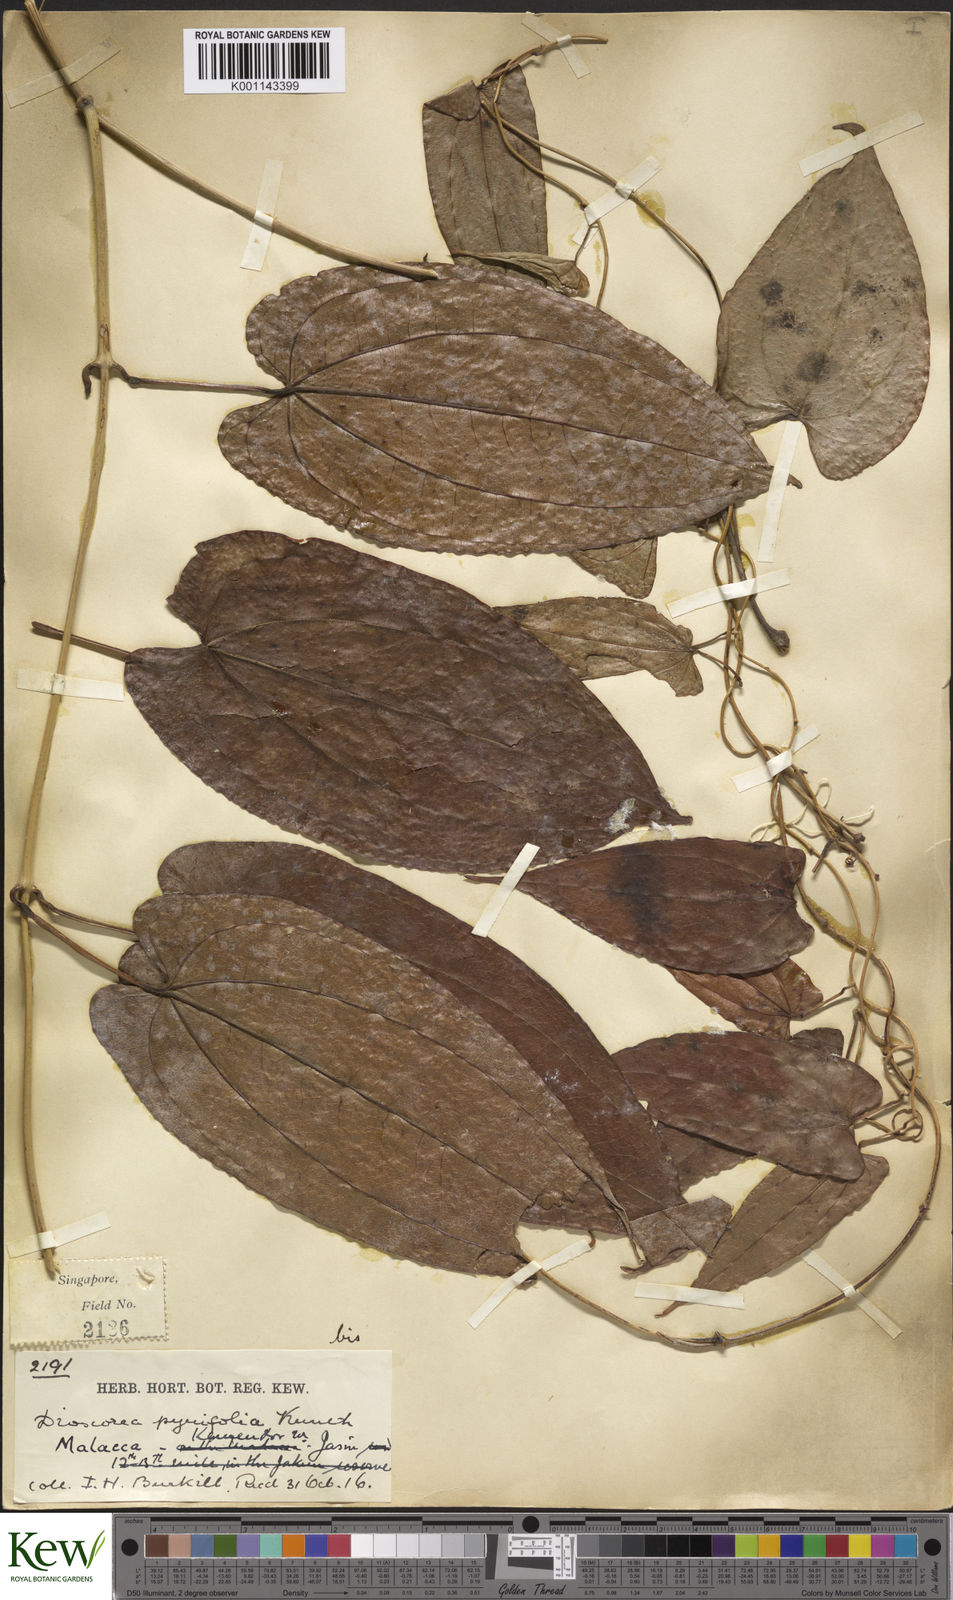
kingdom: Plantae
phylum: Tracheophyta
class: Liliopsida
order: Dioscoreales
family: Dioscoreaceae
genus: Dioscorea
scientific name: Dioscorea pyrifolia
